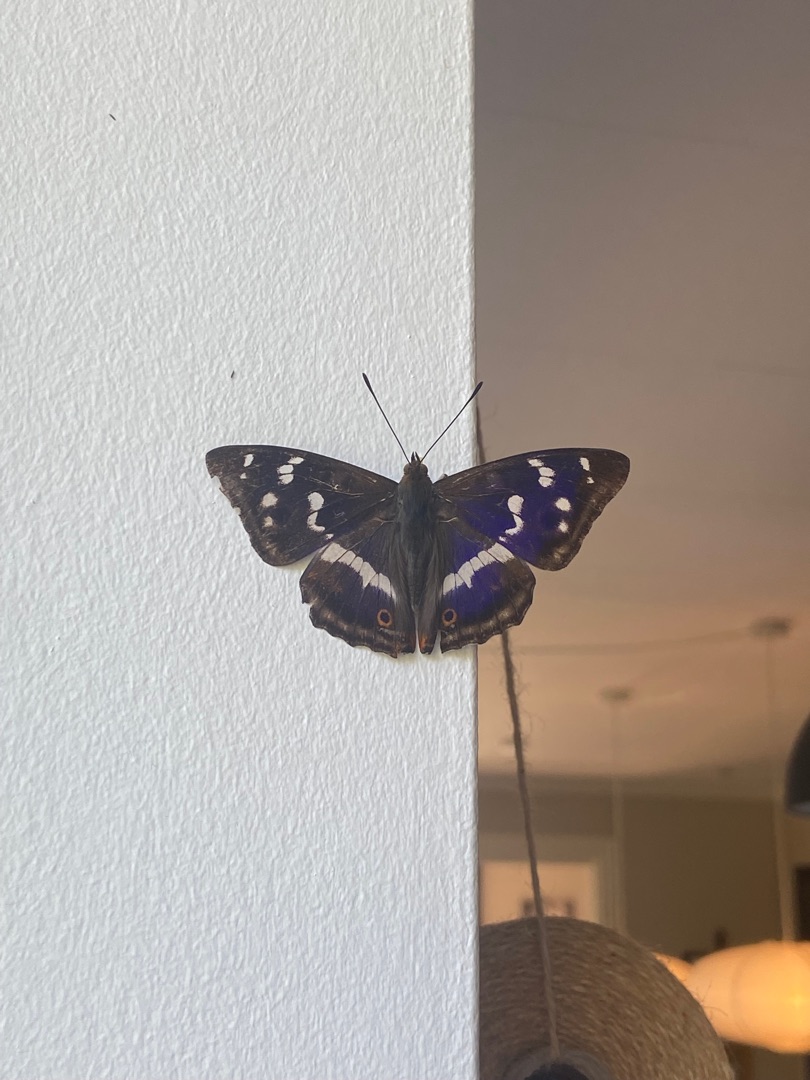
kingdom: Animalia
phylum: Arthropoda
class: Insecta
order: Lepidoptera
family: Nymphalidae
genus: Apatura
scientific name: Apatura iris
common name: Iris
